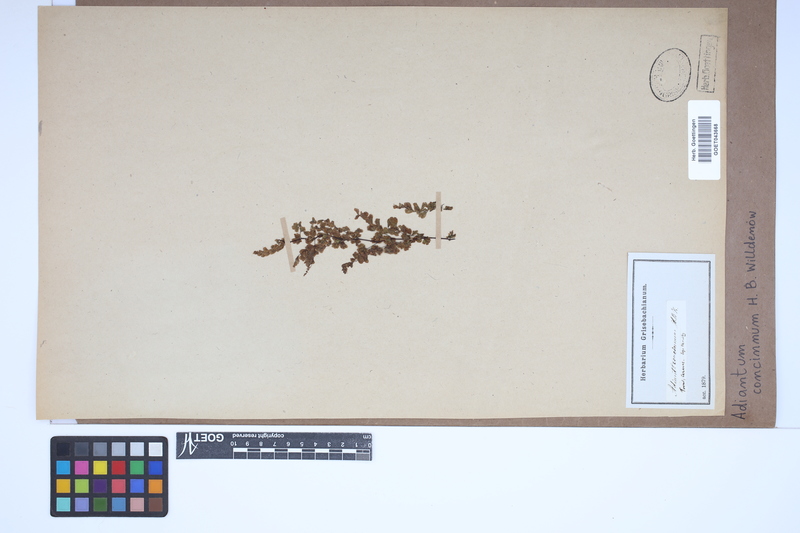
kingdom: Plantae
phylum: Tracheophyta
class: Polypodiopsida
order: Polypodiales
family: Pteridaceae
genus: Adiantum
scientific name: Adiantum concinnum
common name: Brittle maidenhair fern
